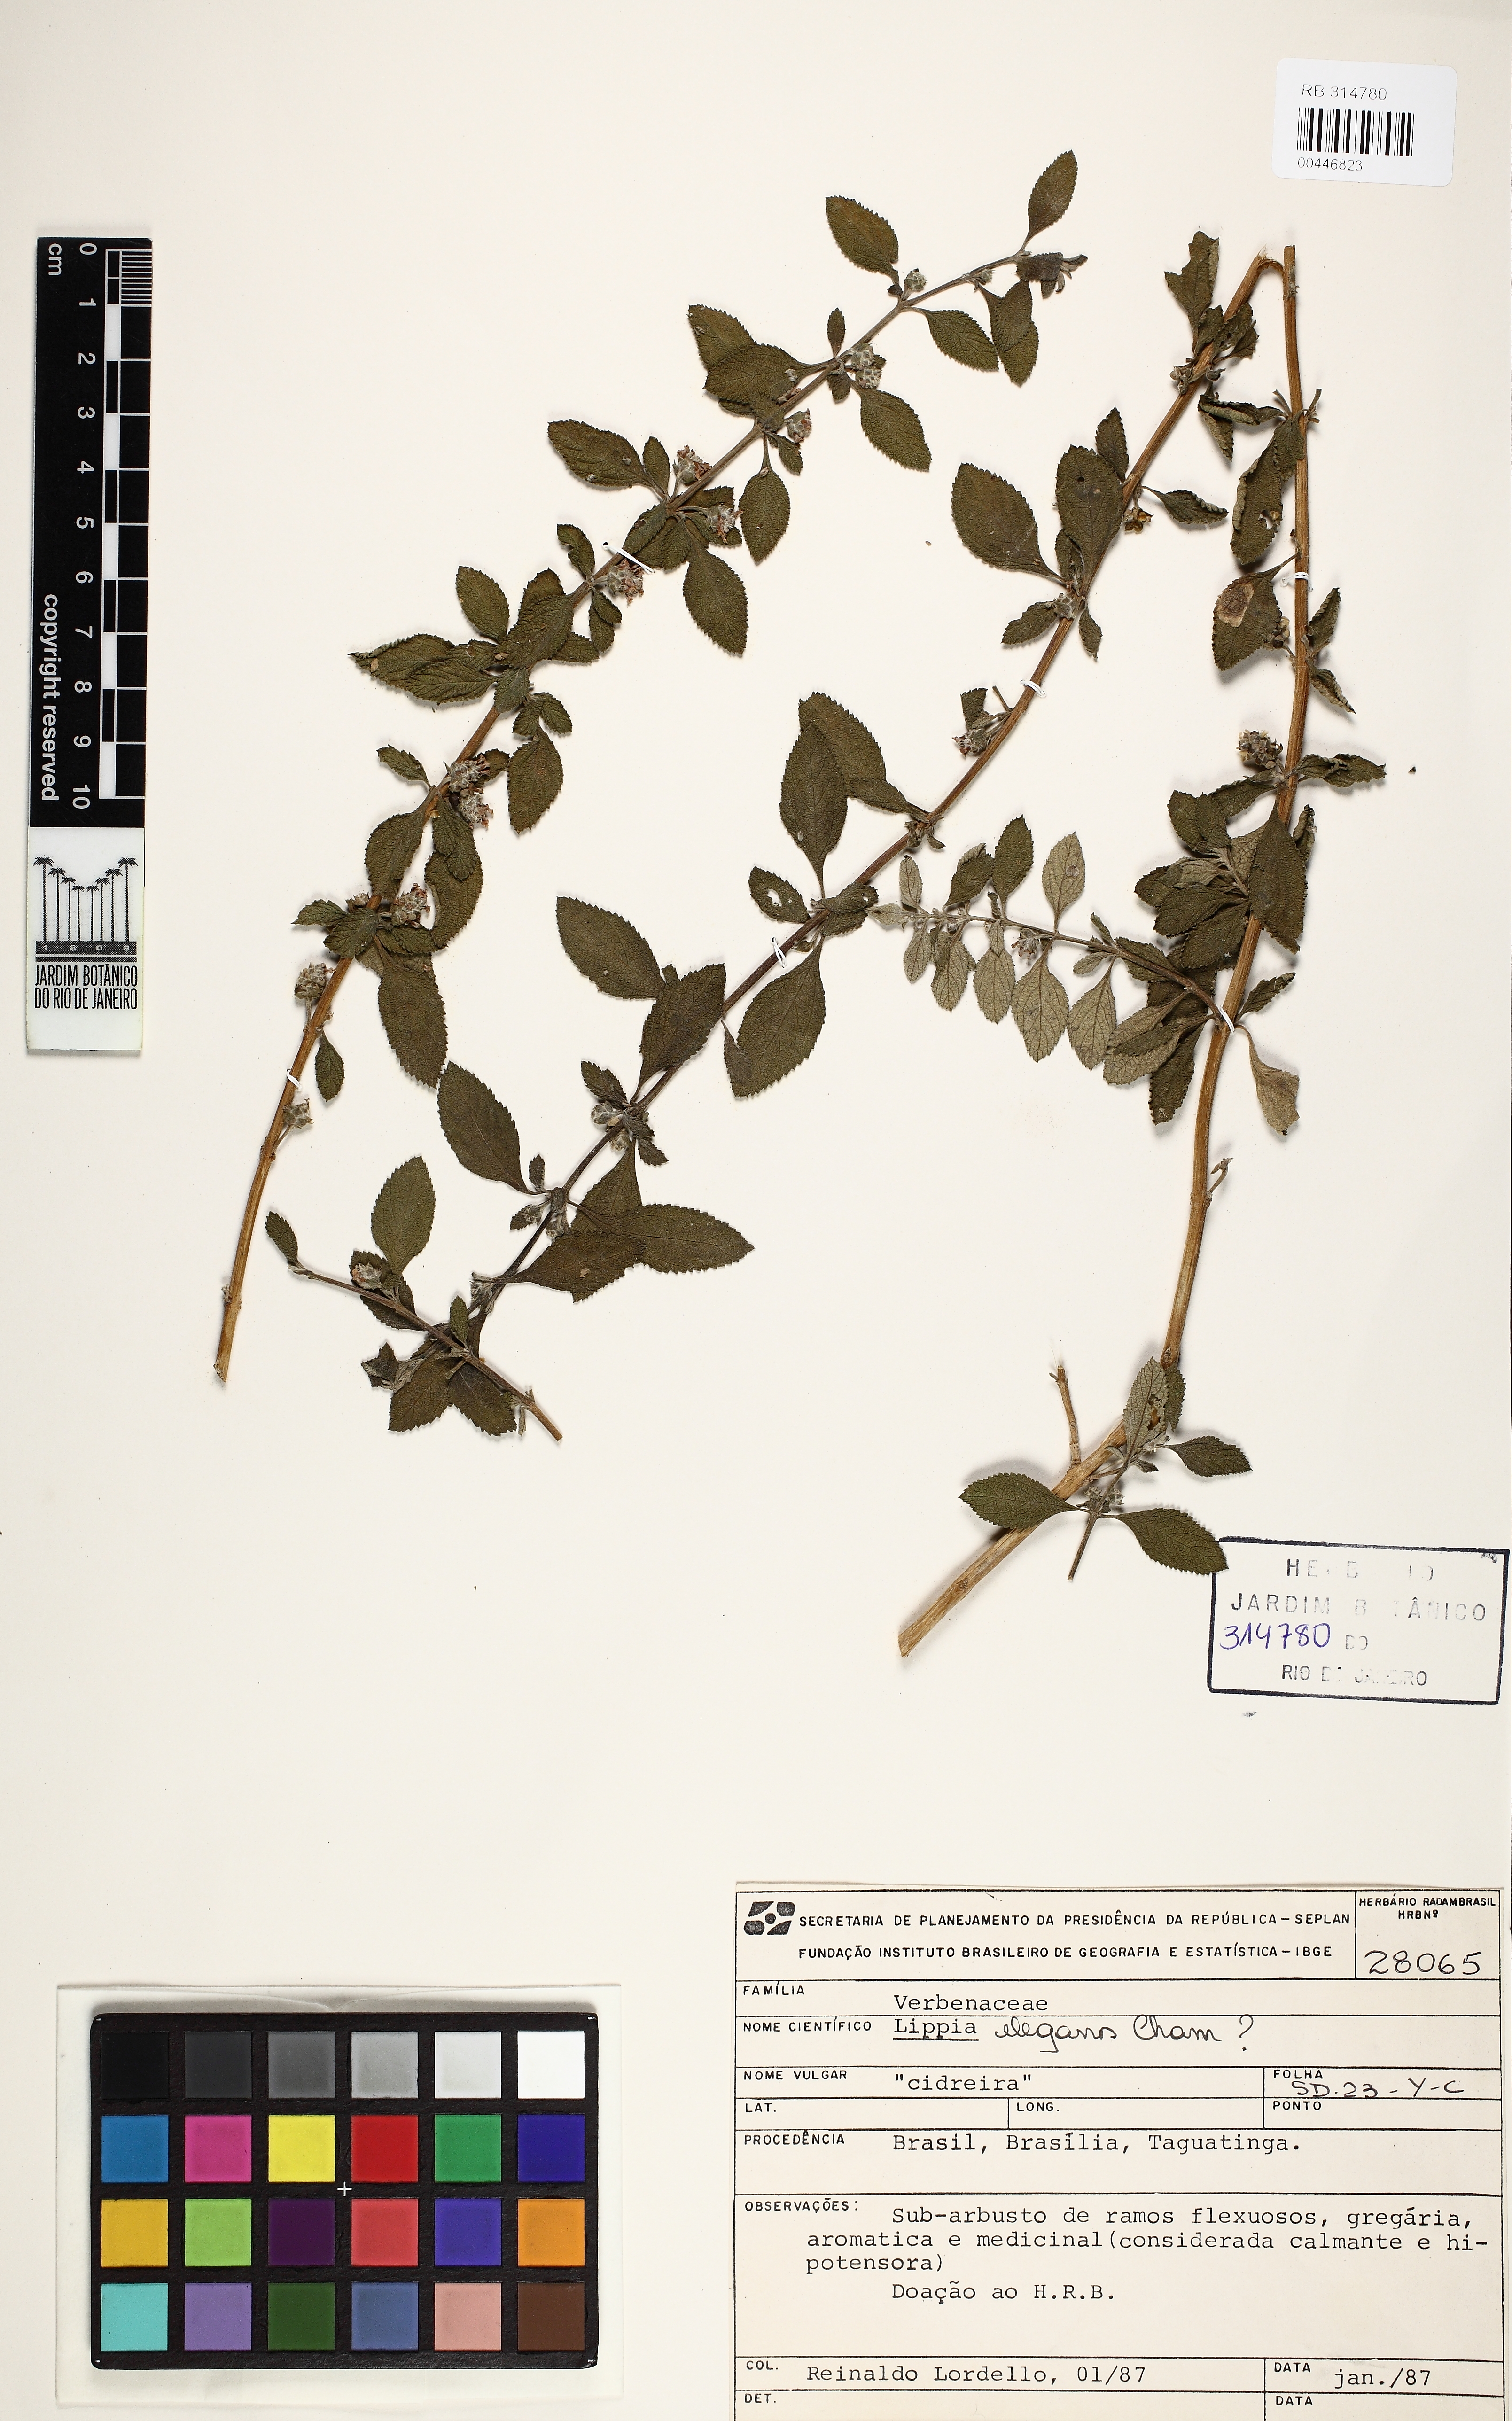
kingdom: Plantae
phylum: Tracheophyta
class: Magnoliopsida
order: Lamiales
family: Verbenaceae
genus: Lippia
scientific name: Lippia origanoides
